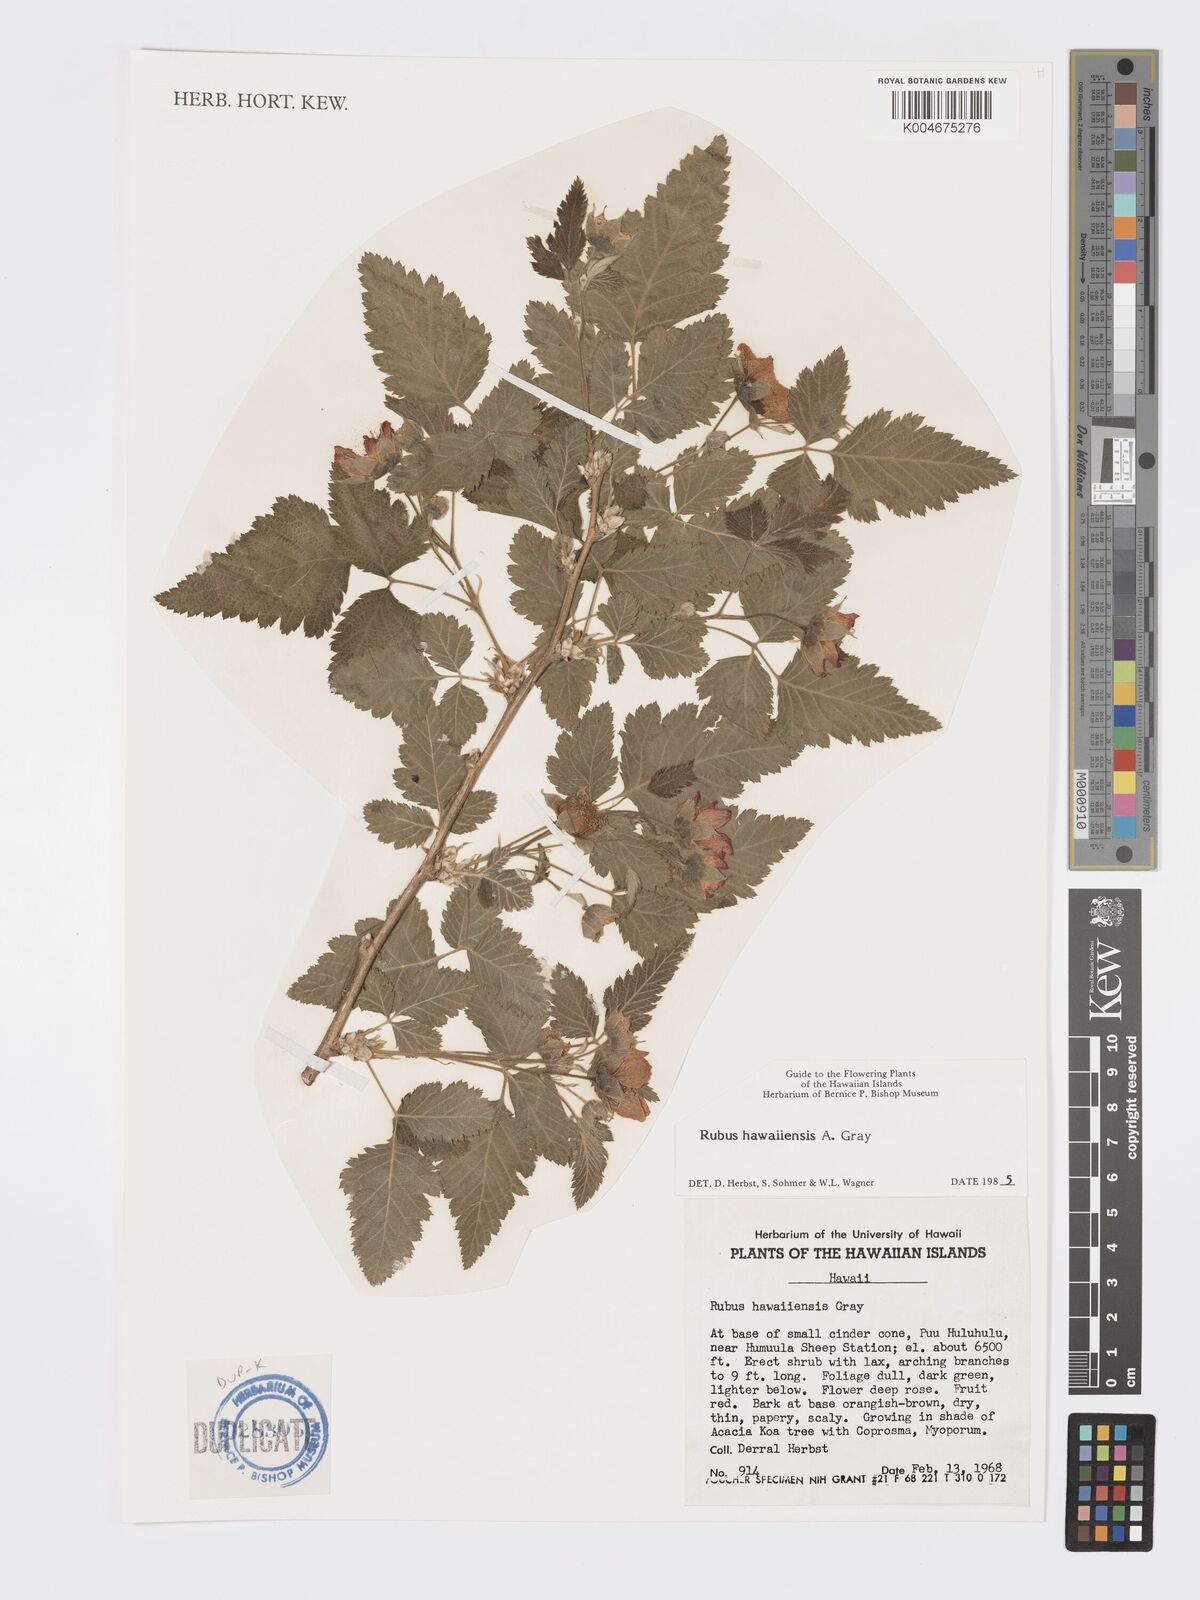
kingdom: Plantae
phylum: Tracheophyta
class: Magnoliopsida
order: Rosales
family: Rosaceae
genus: Rubus
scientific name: Rubus hawaiensis
